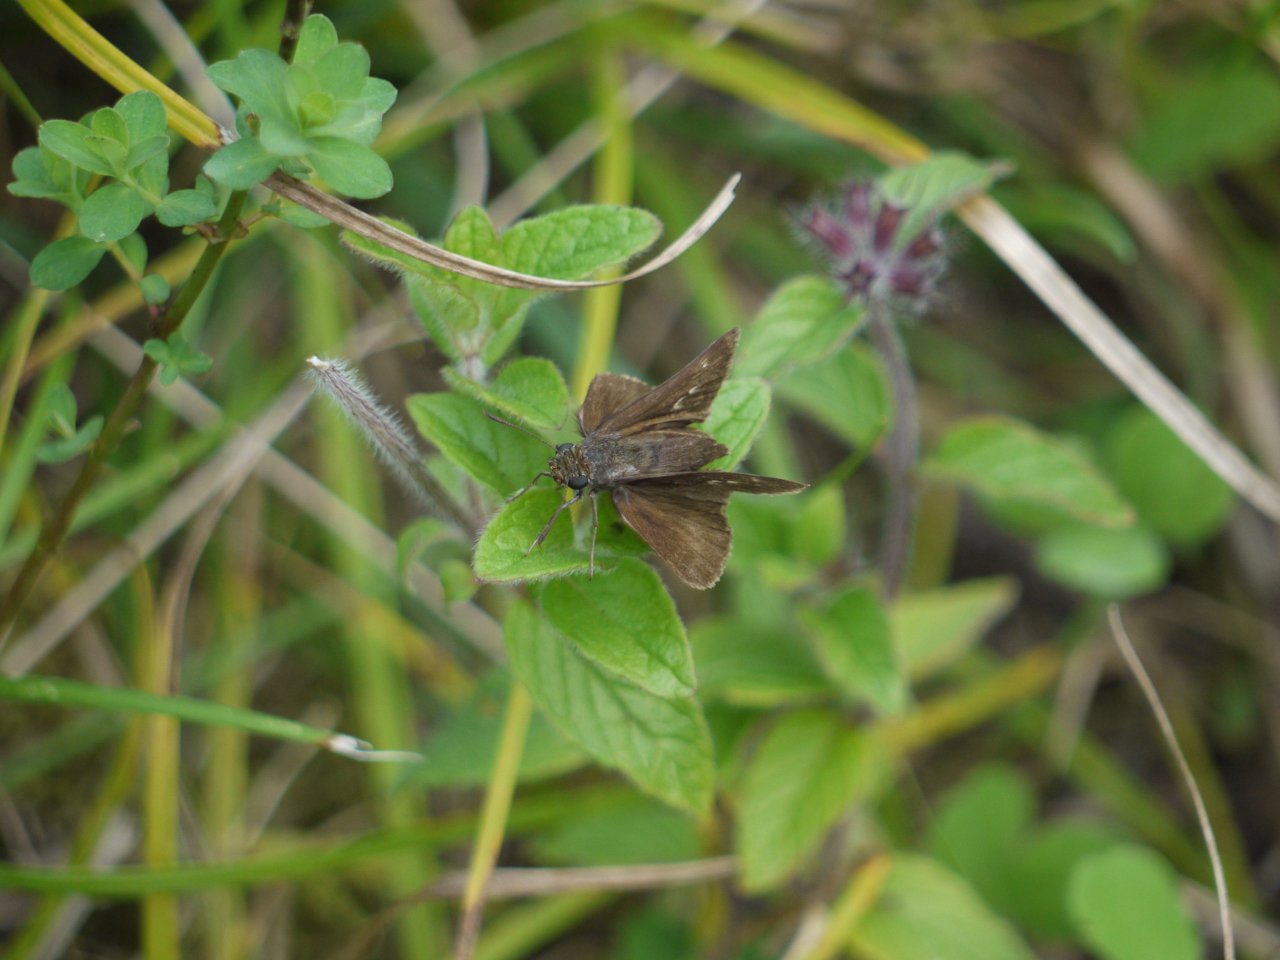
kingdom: Animalia
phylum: Arthropoda
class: Insecta
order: Lepidoptera
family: Hesperiidae
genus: Polites
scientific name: Polites egeremet
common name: Northern Broken-Dash
